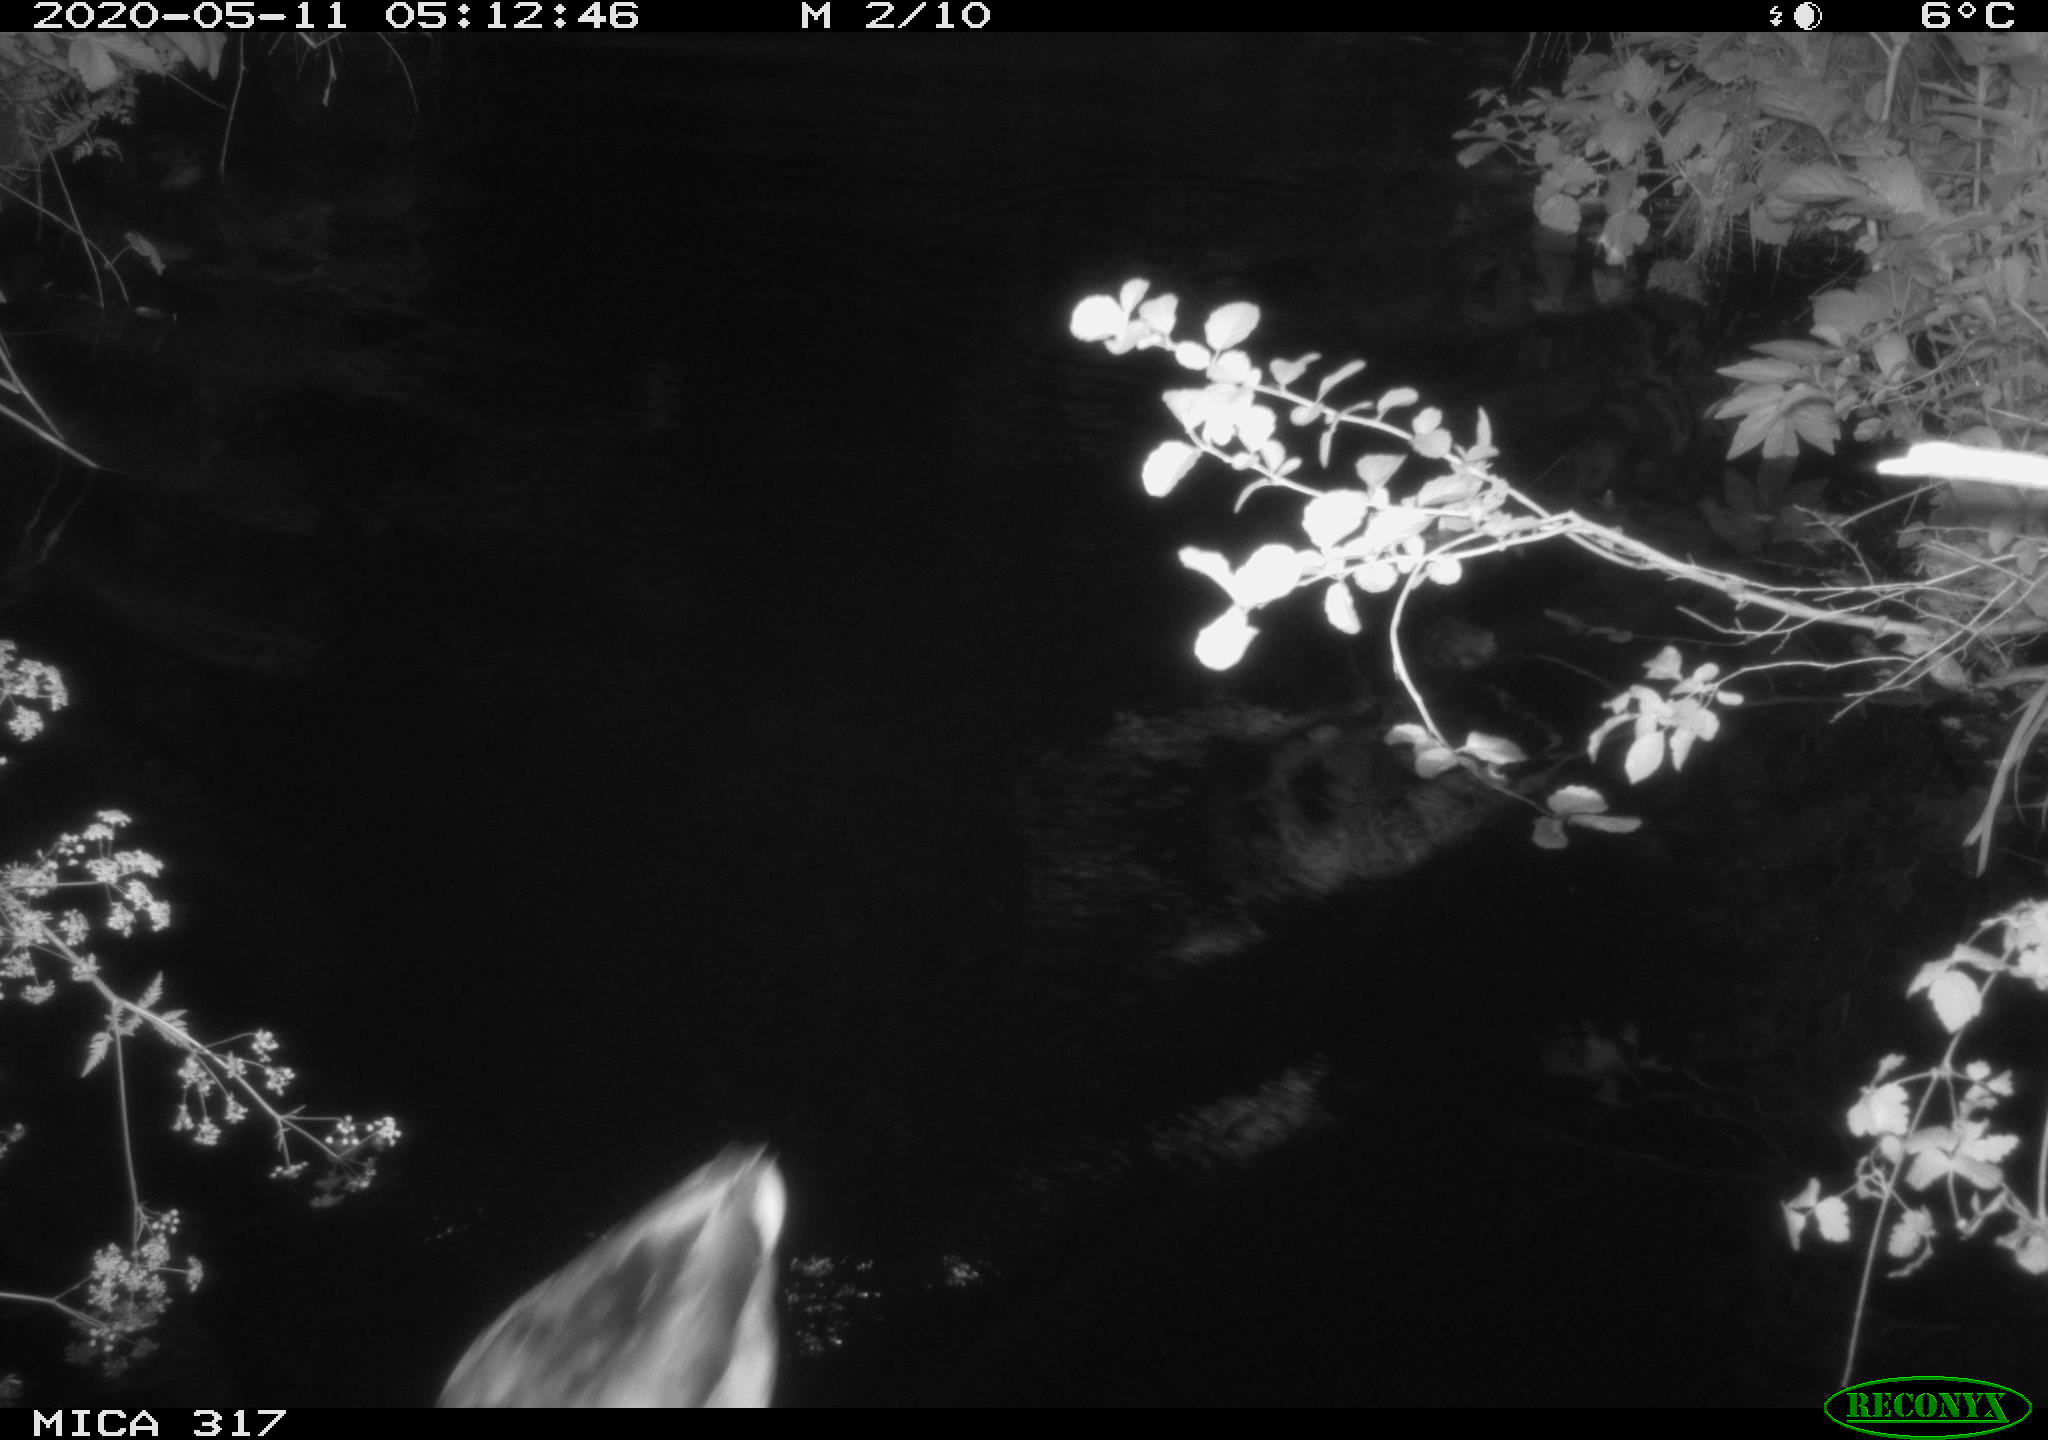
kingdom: Animalia
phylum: Chordata
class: Aves
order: Anseriformes
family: Anatidae
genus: Anas
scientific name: Anas platyrhynchos
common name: Mallard
